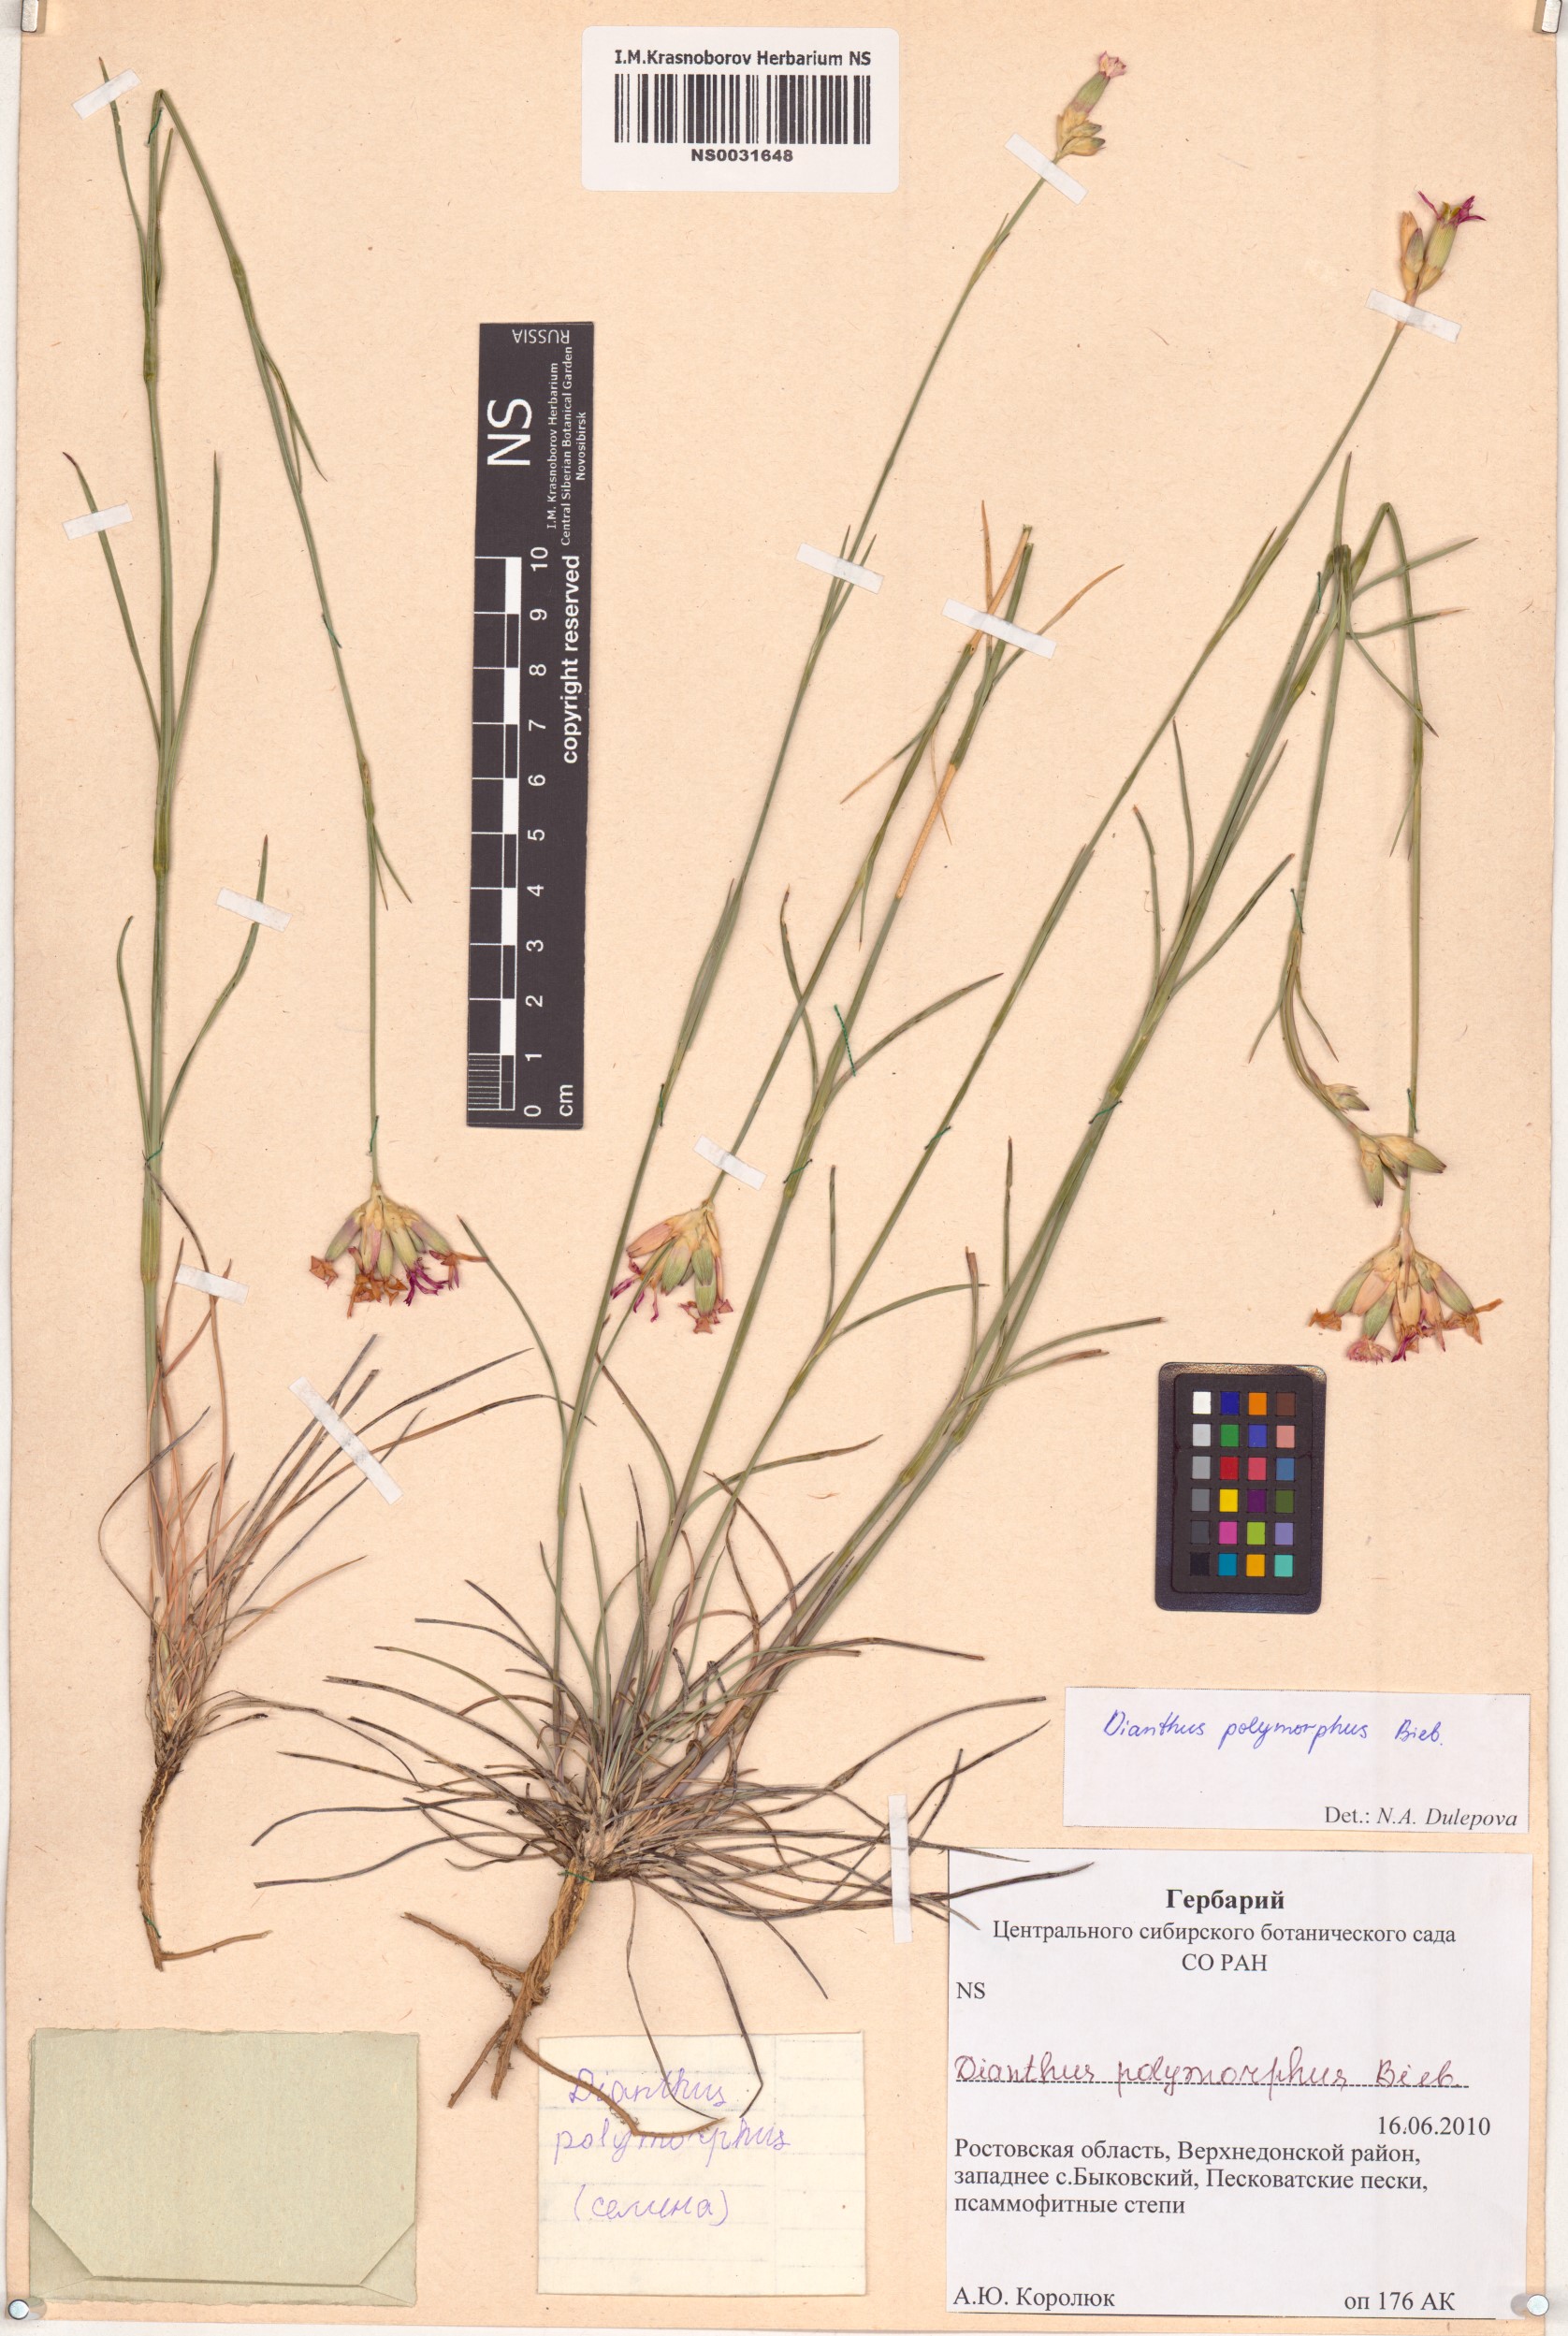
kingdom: Plantae
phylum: Tracheophyta
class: Magnoliopsida
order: Caryophyllales
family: Caryophyllaceae
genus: Dianthus
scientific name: Dianthus polymorphus
